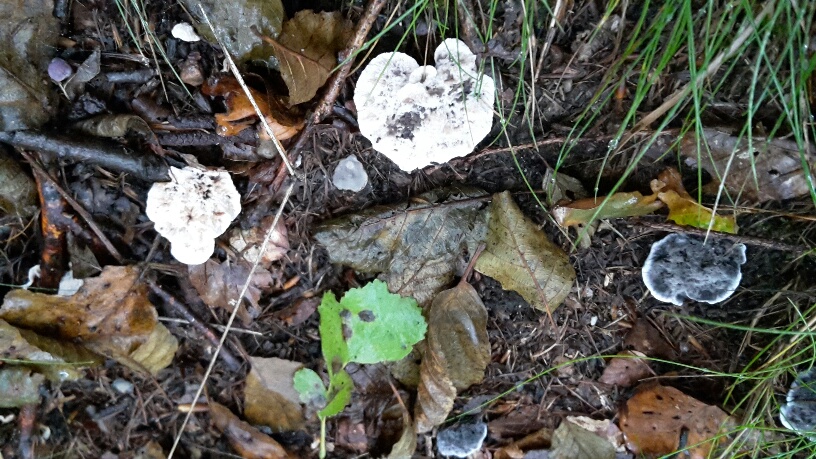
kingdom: Fungi
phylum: Basidiomycota
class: Agaricomycetes
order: Thelephorales
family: Thelephoraceae
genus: Phellodon
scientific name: Phellodon
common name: mørk duftpigsvamp
